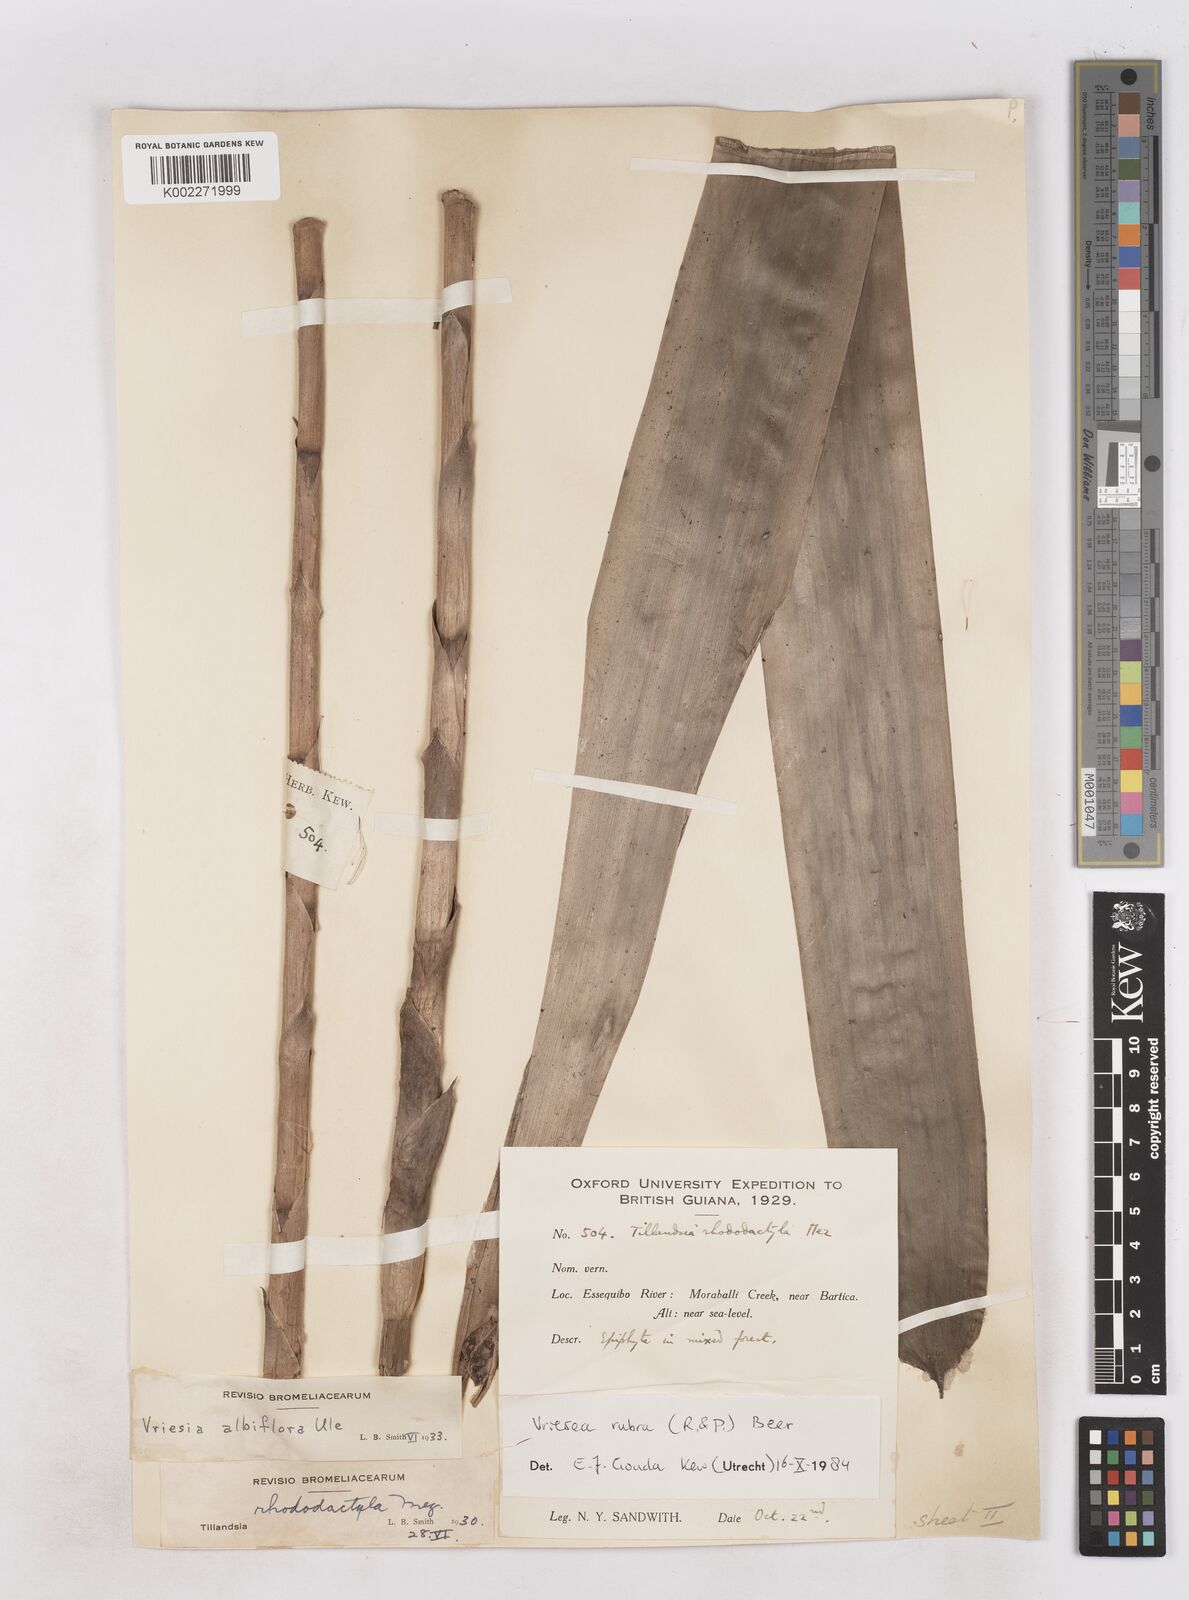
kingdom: Plantae
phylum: Tracheophyta
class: Liliopsida
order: Poales
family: Bromeliaceae
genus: Vriesea
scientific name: Vriesea rubra
